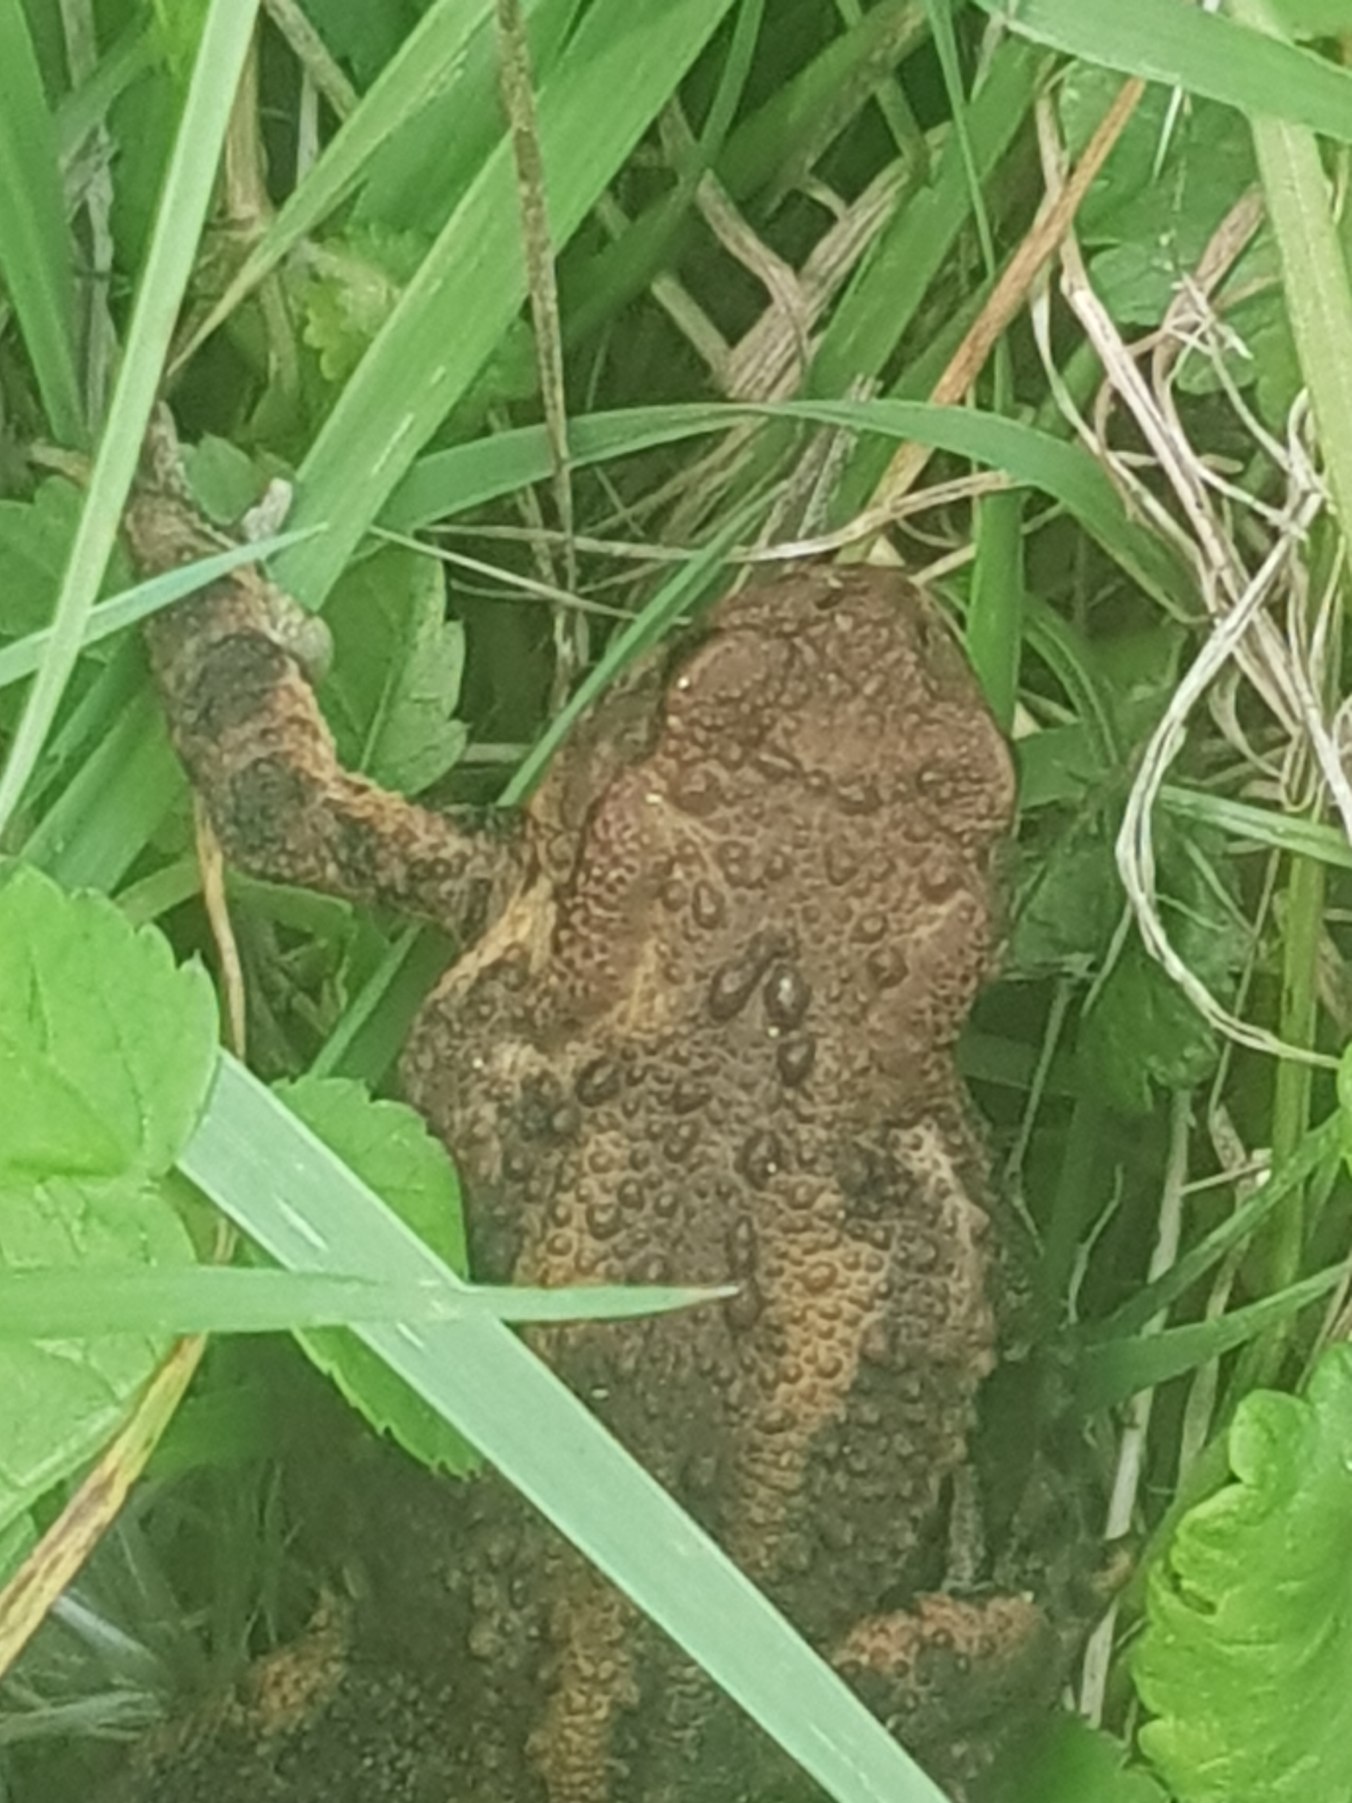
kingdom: Animalia
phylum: Chordata
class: Amphibia
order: Anura
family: Bufonidae
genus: Bufo
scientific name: Bufo bufo
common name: Skrubtudse
